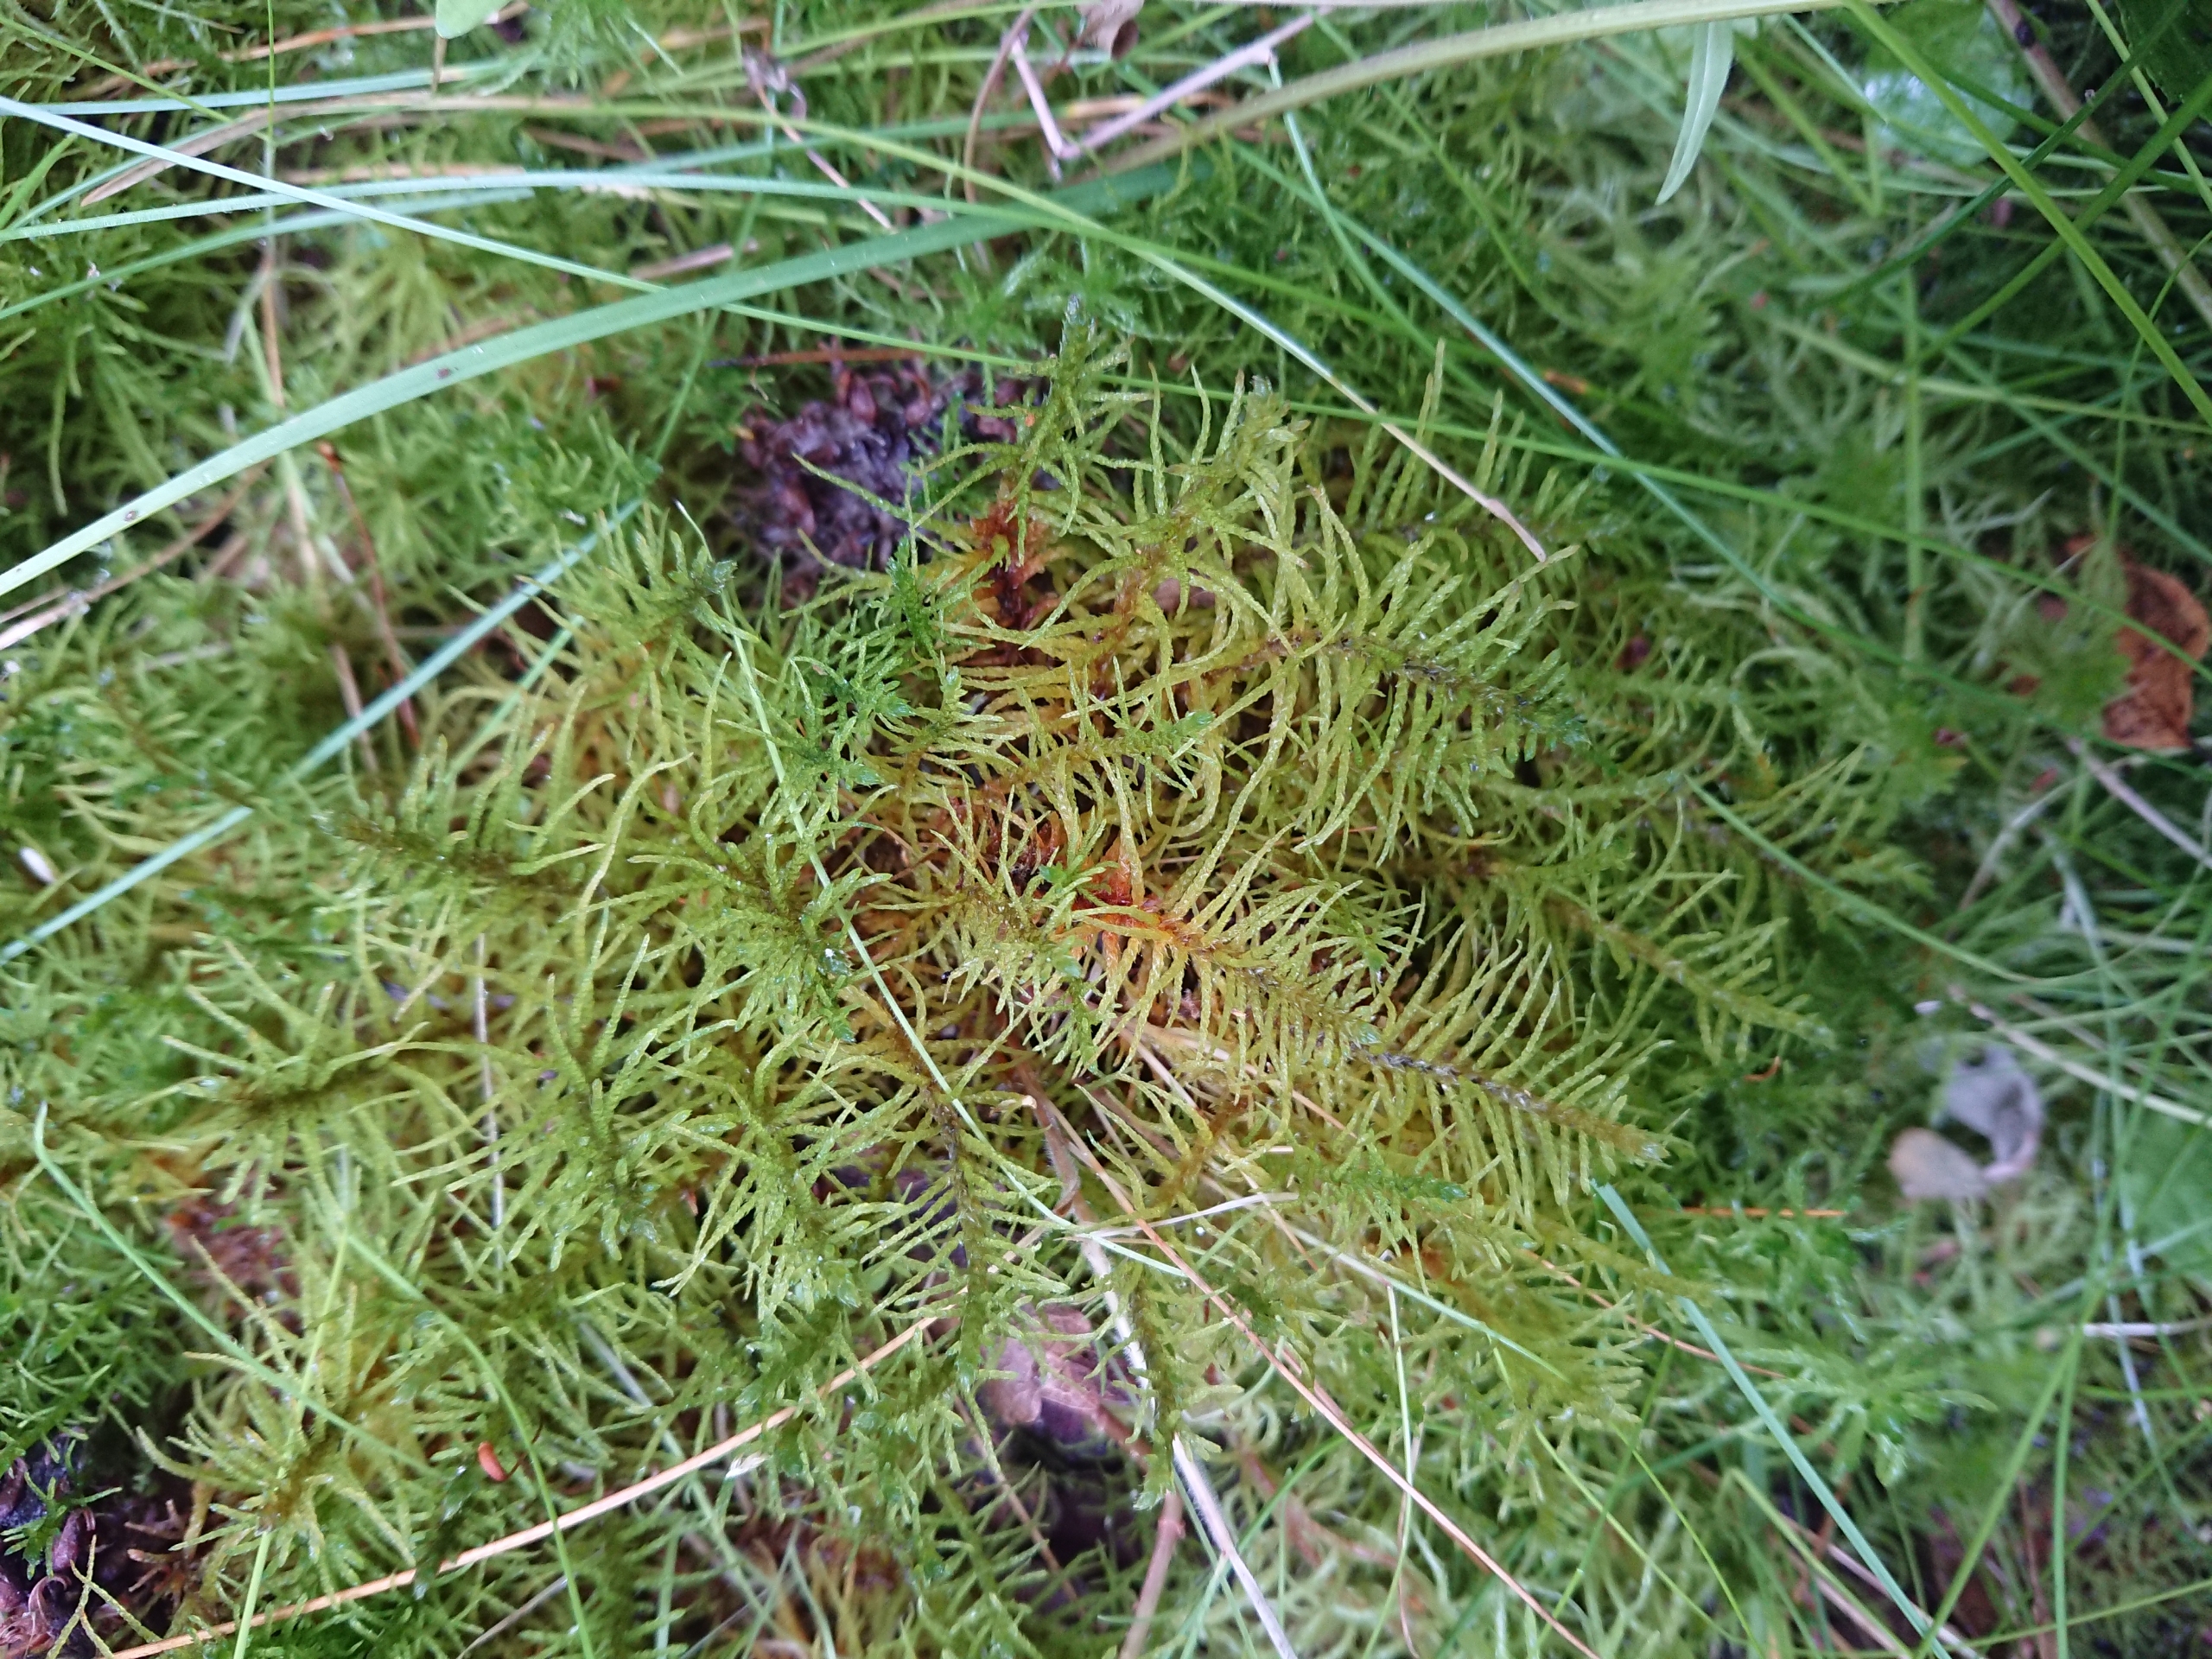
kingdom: Plantae
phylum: Bryophyta
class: Bryopsida
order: Hypnales
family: Helodiaceae
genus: Helodium
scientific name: Helodium blandowii
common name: Kær-gyldenmos
